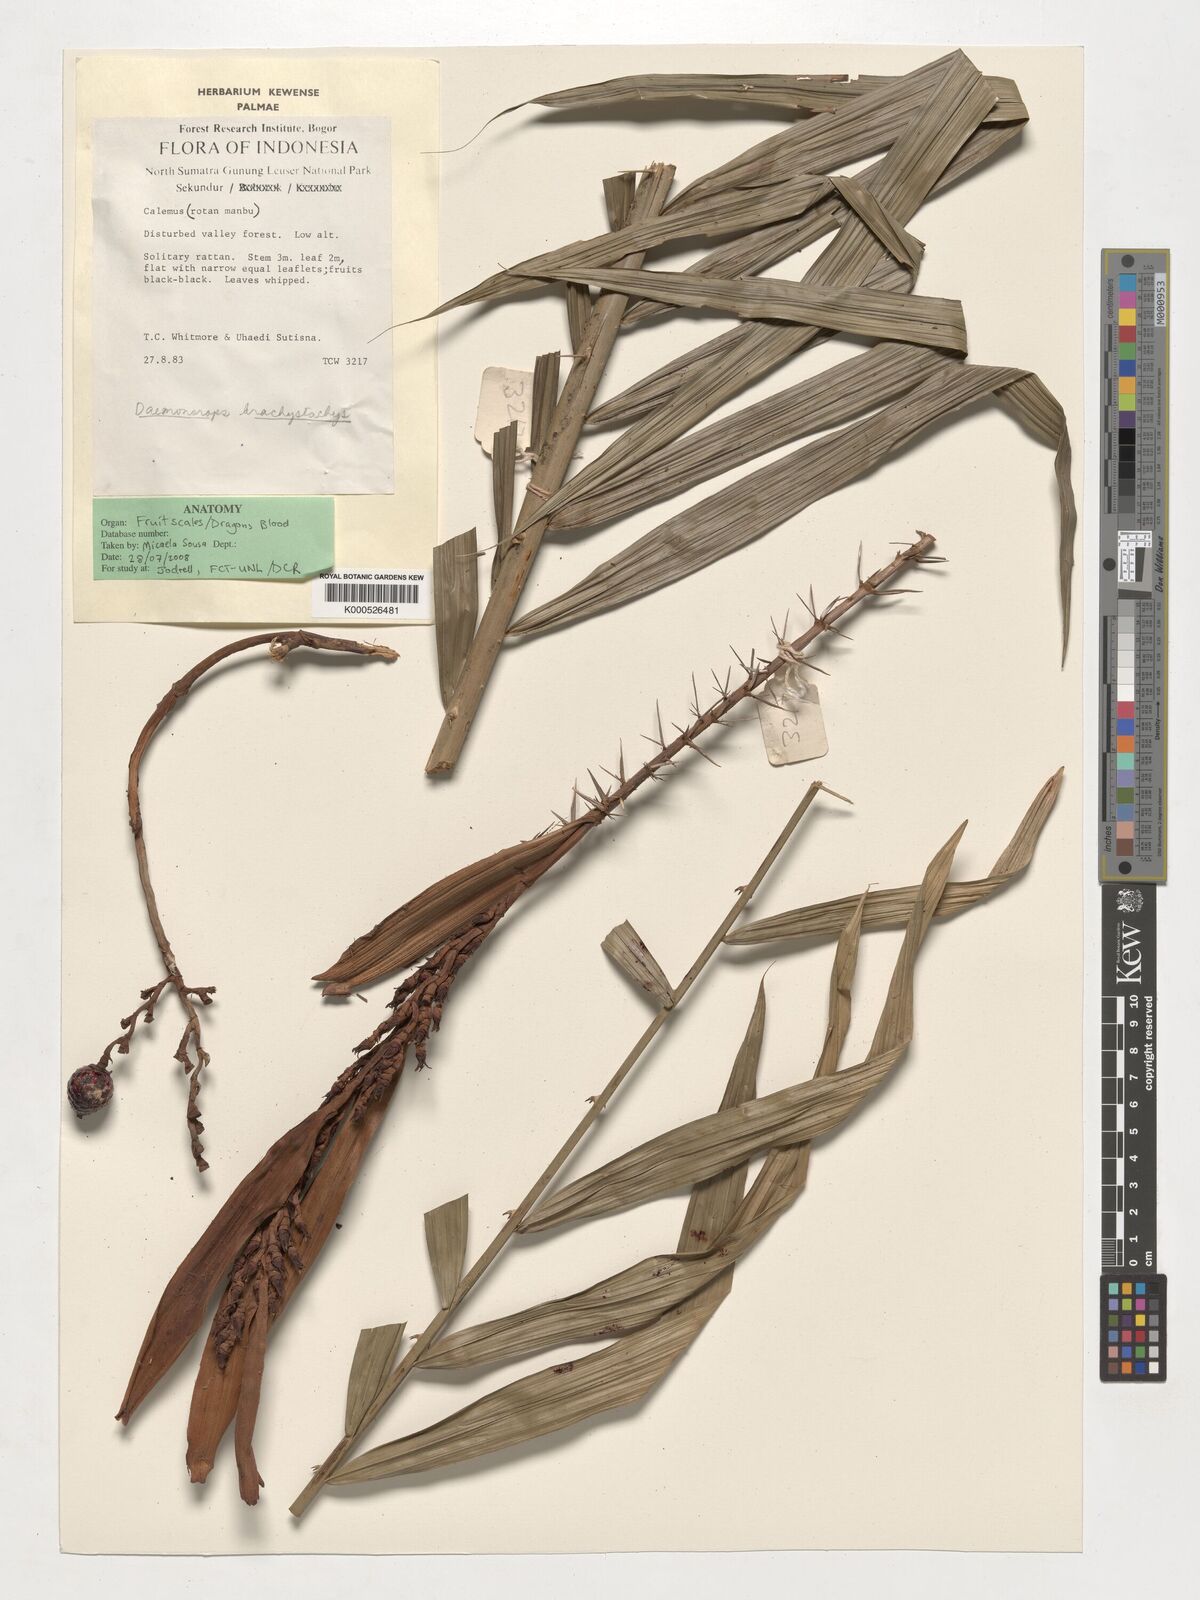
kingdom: Plantae
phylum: Tracheophyta
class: Liliopsida
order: Arecales
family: Arecaceae
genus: Calamus
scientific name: Calamus propinquus
